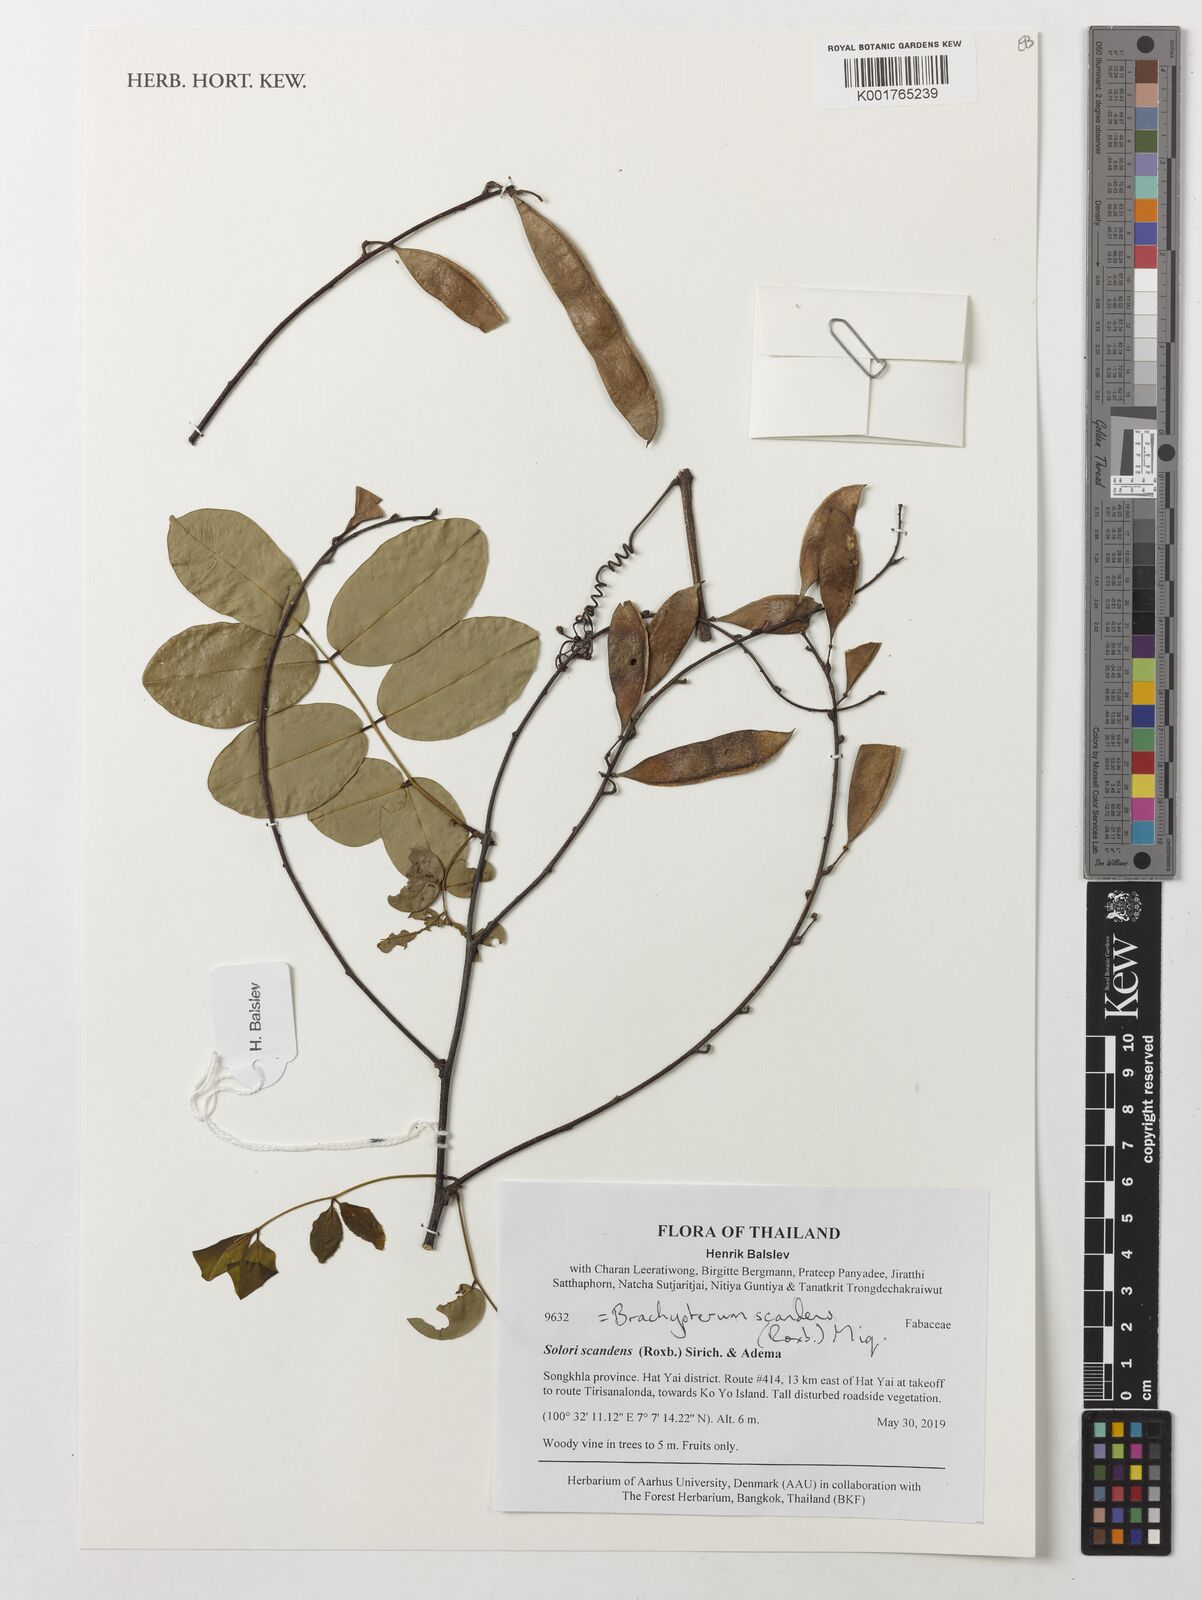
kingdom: Plantae
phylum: Tracheophyta
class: Magnoliopsida
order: Fabales
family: Fabaceae
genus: Brachypterum
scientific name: Brachypterum scandens
